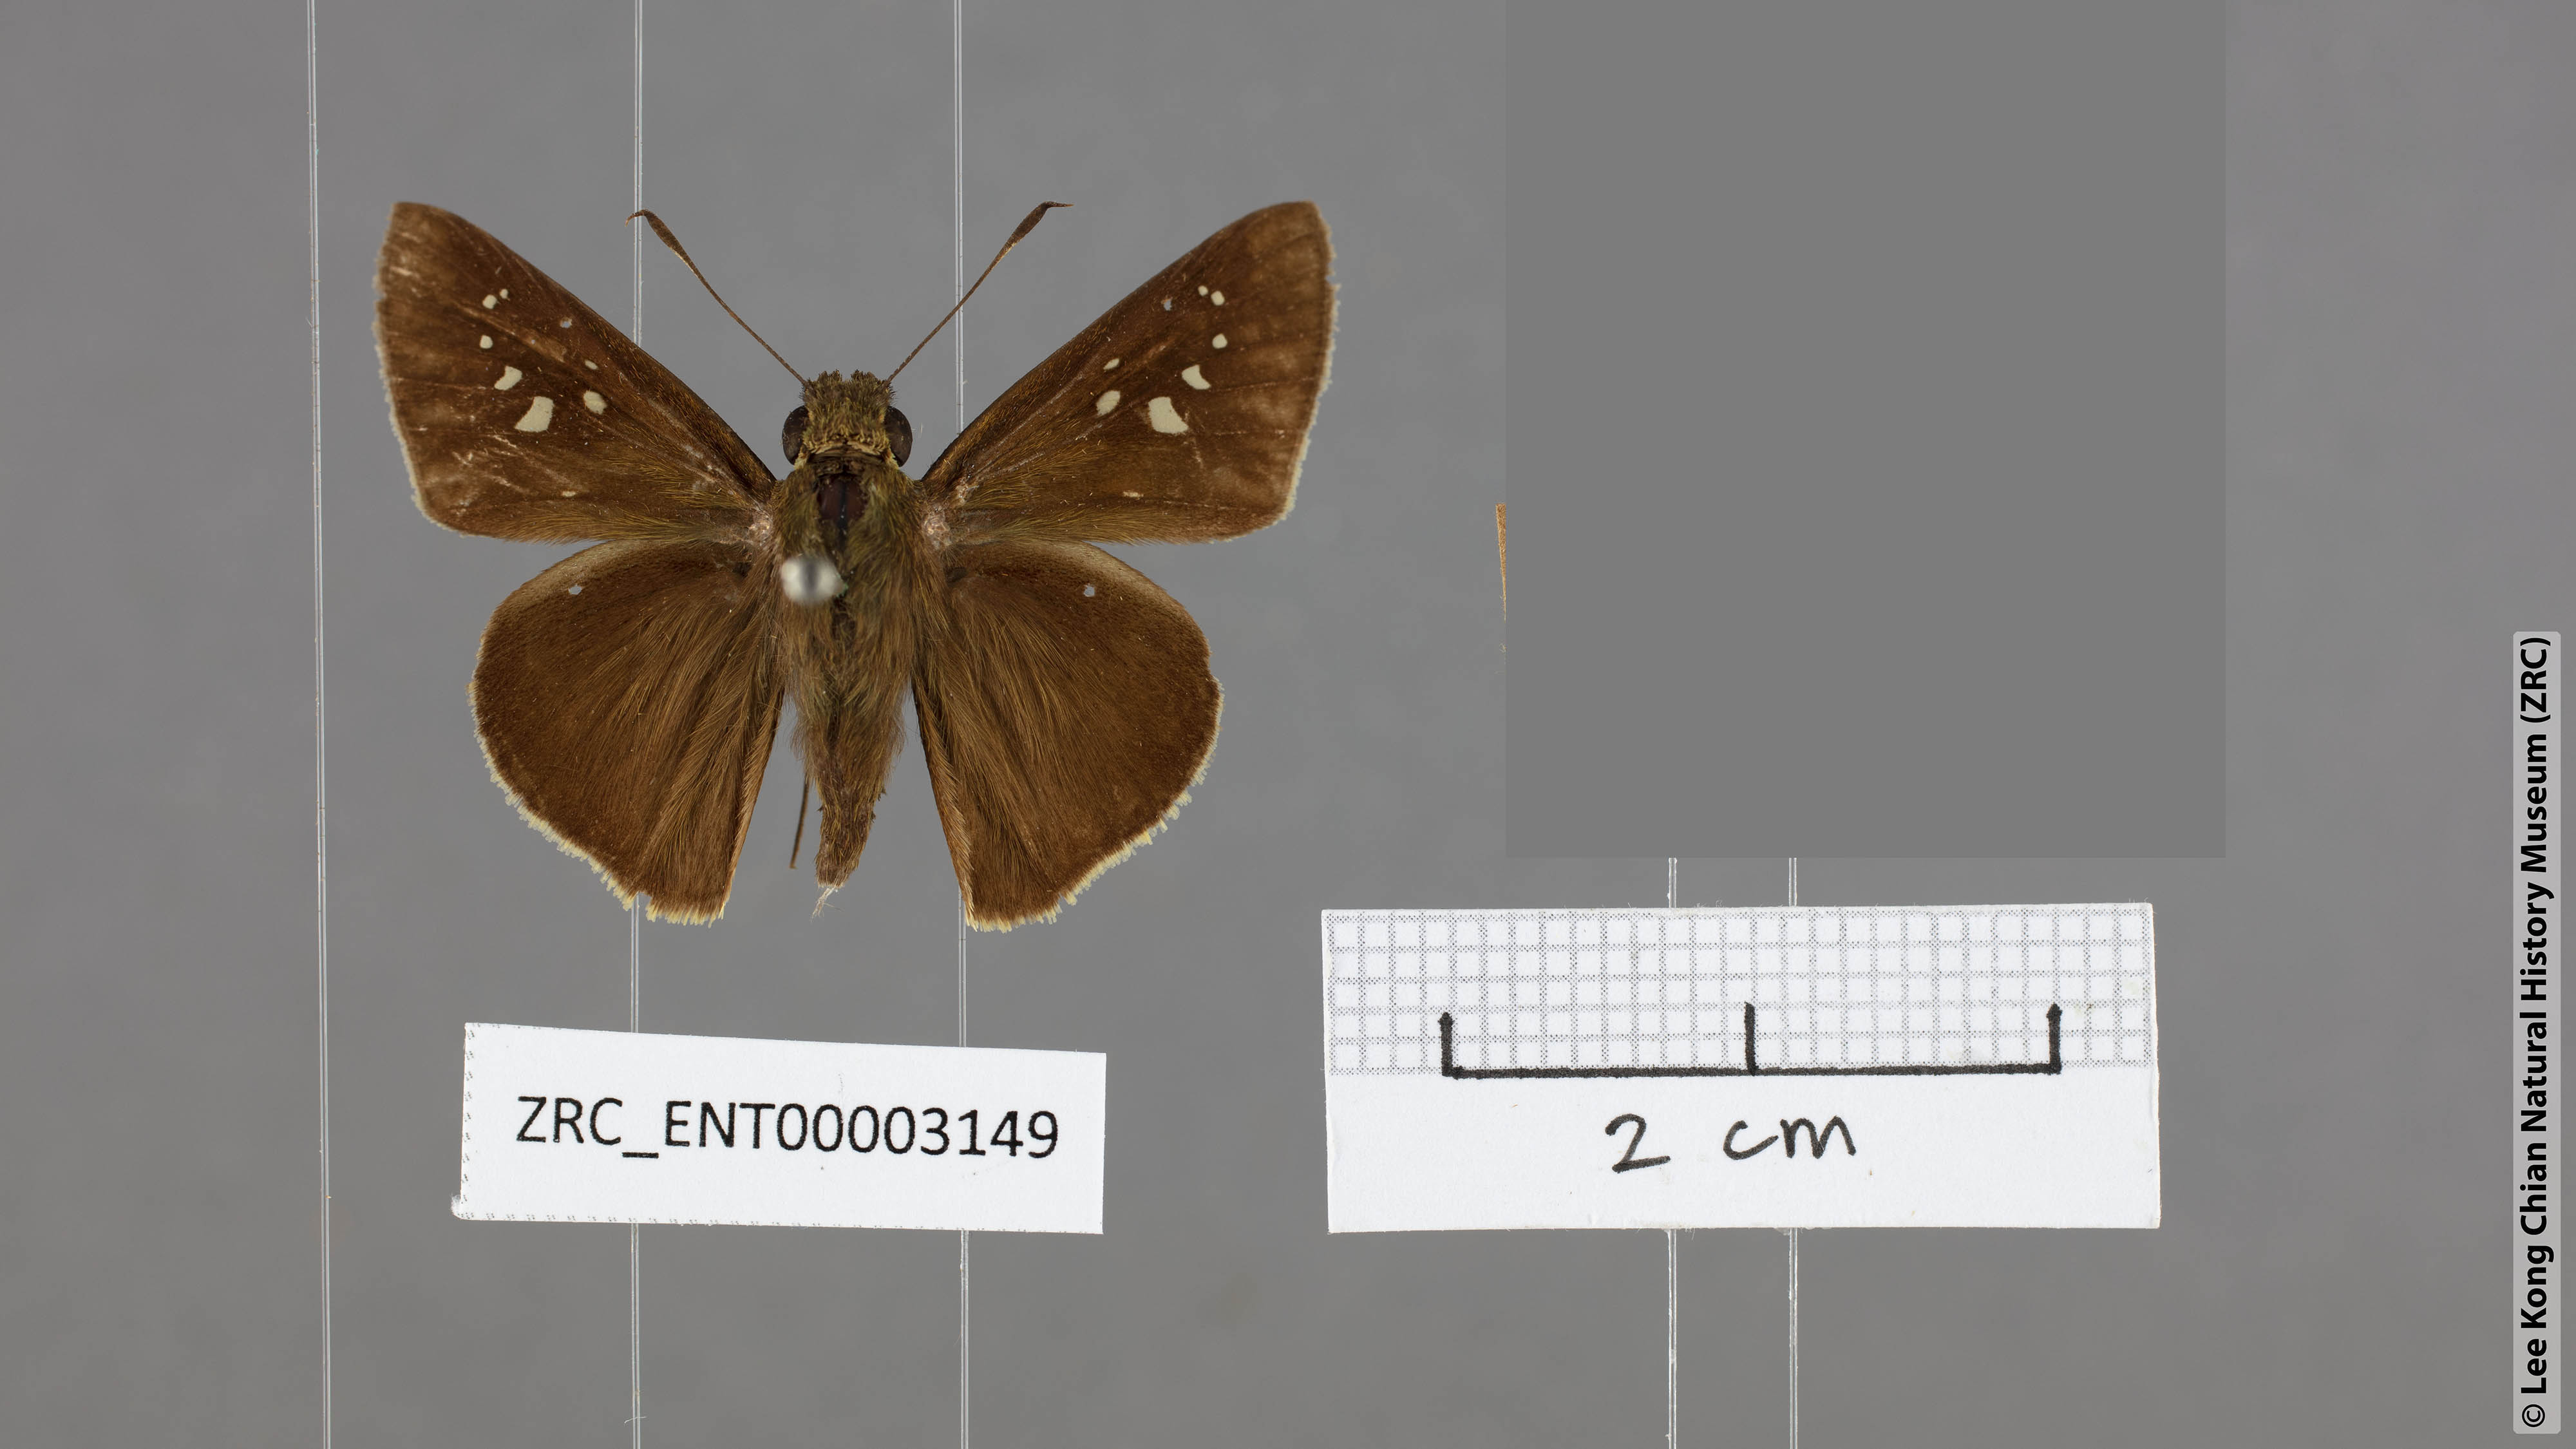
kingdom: Animalia
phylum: Arthropoda
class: Insecta
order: Lepidoptera
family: Hesperiidae
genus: Caltoris
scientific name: Caltoris cahira
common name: Colon swift
